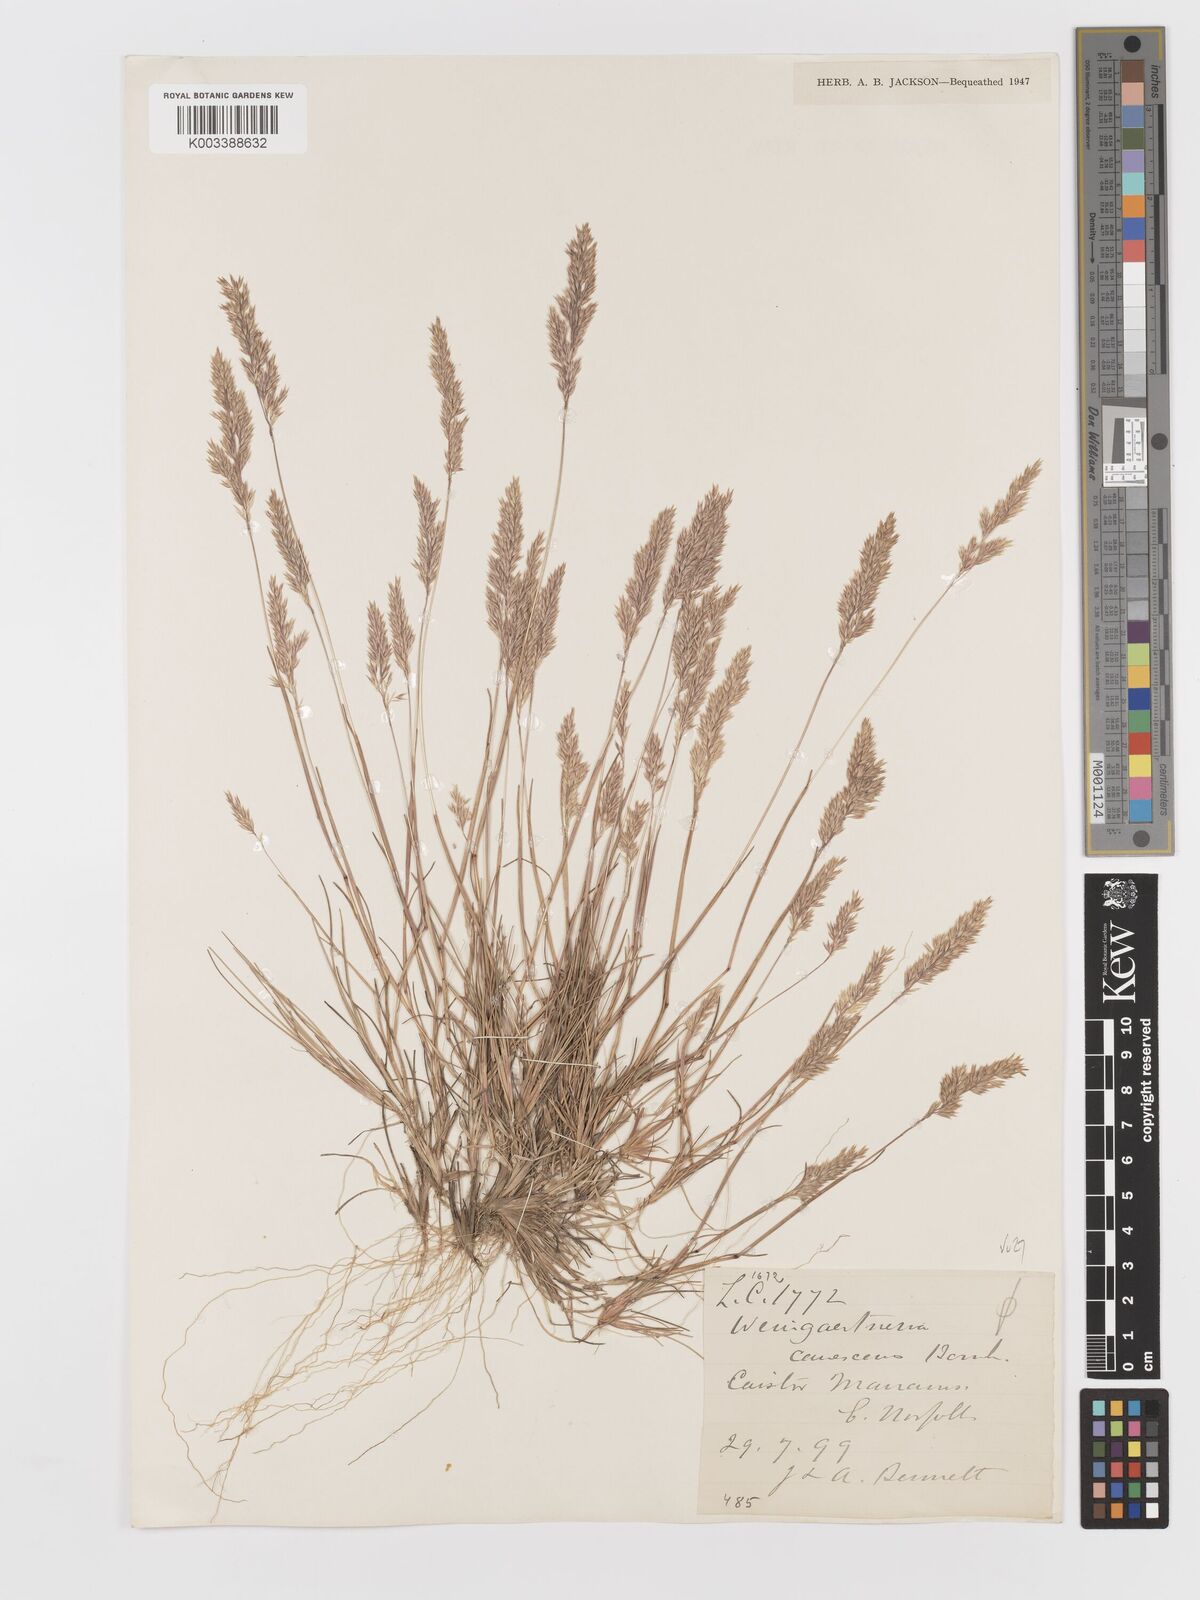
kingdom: Plantae
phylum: Tracheophyta
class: Liliopsida
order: Poales
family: Poaceae
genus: Corynephorus
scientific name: Corynephorus canescens
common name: Grey hair-grass
